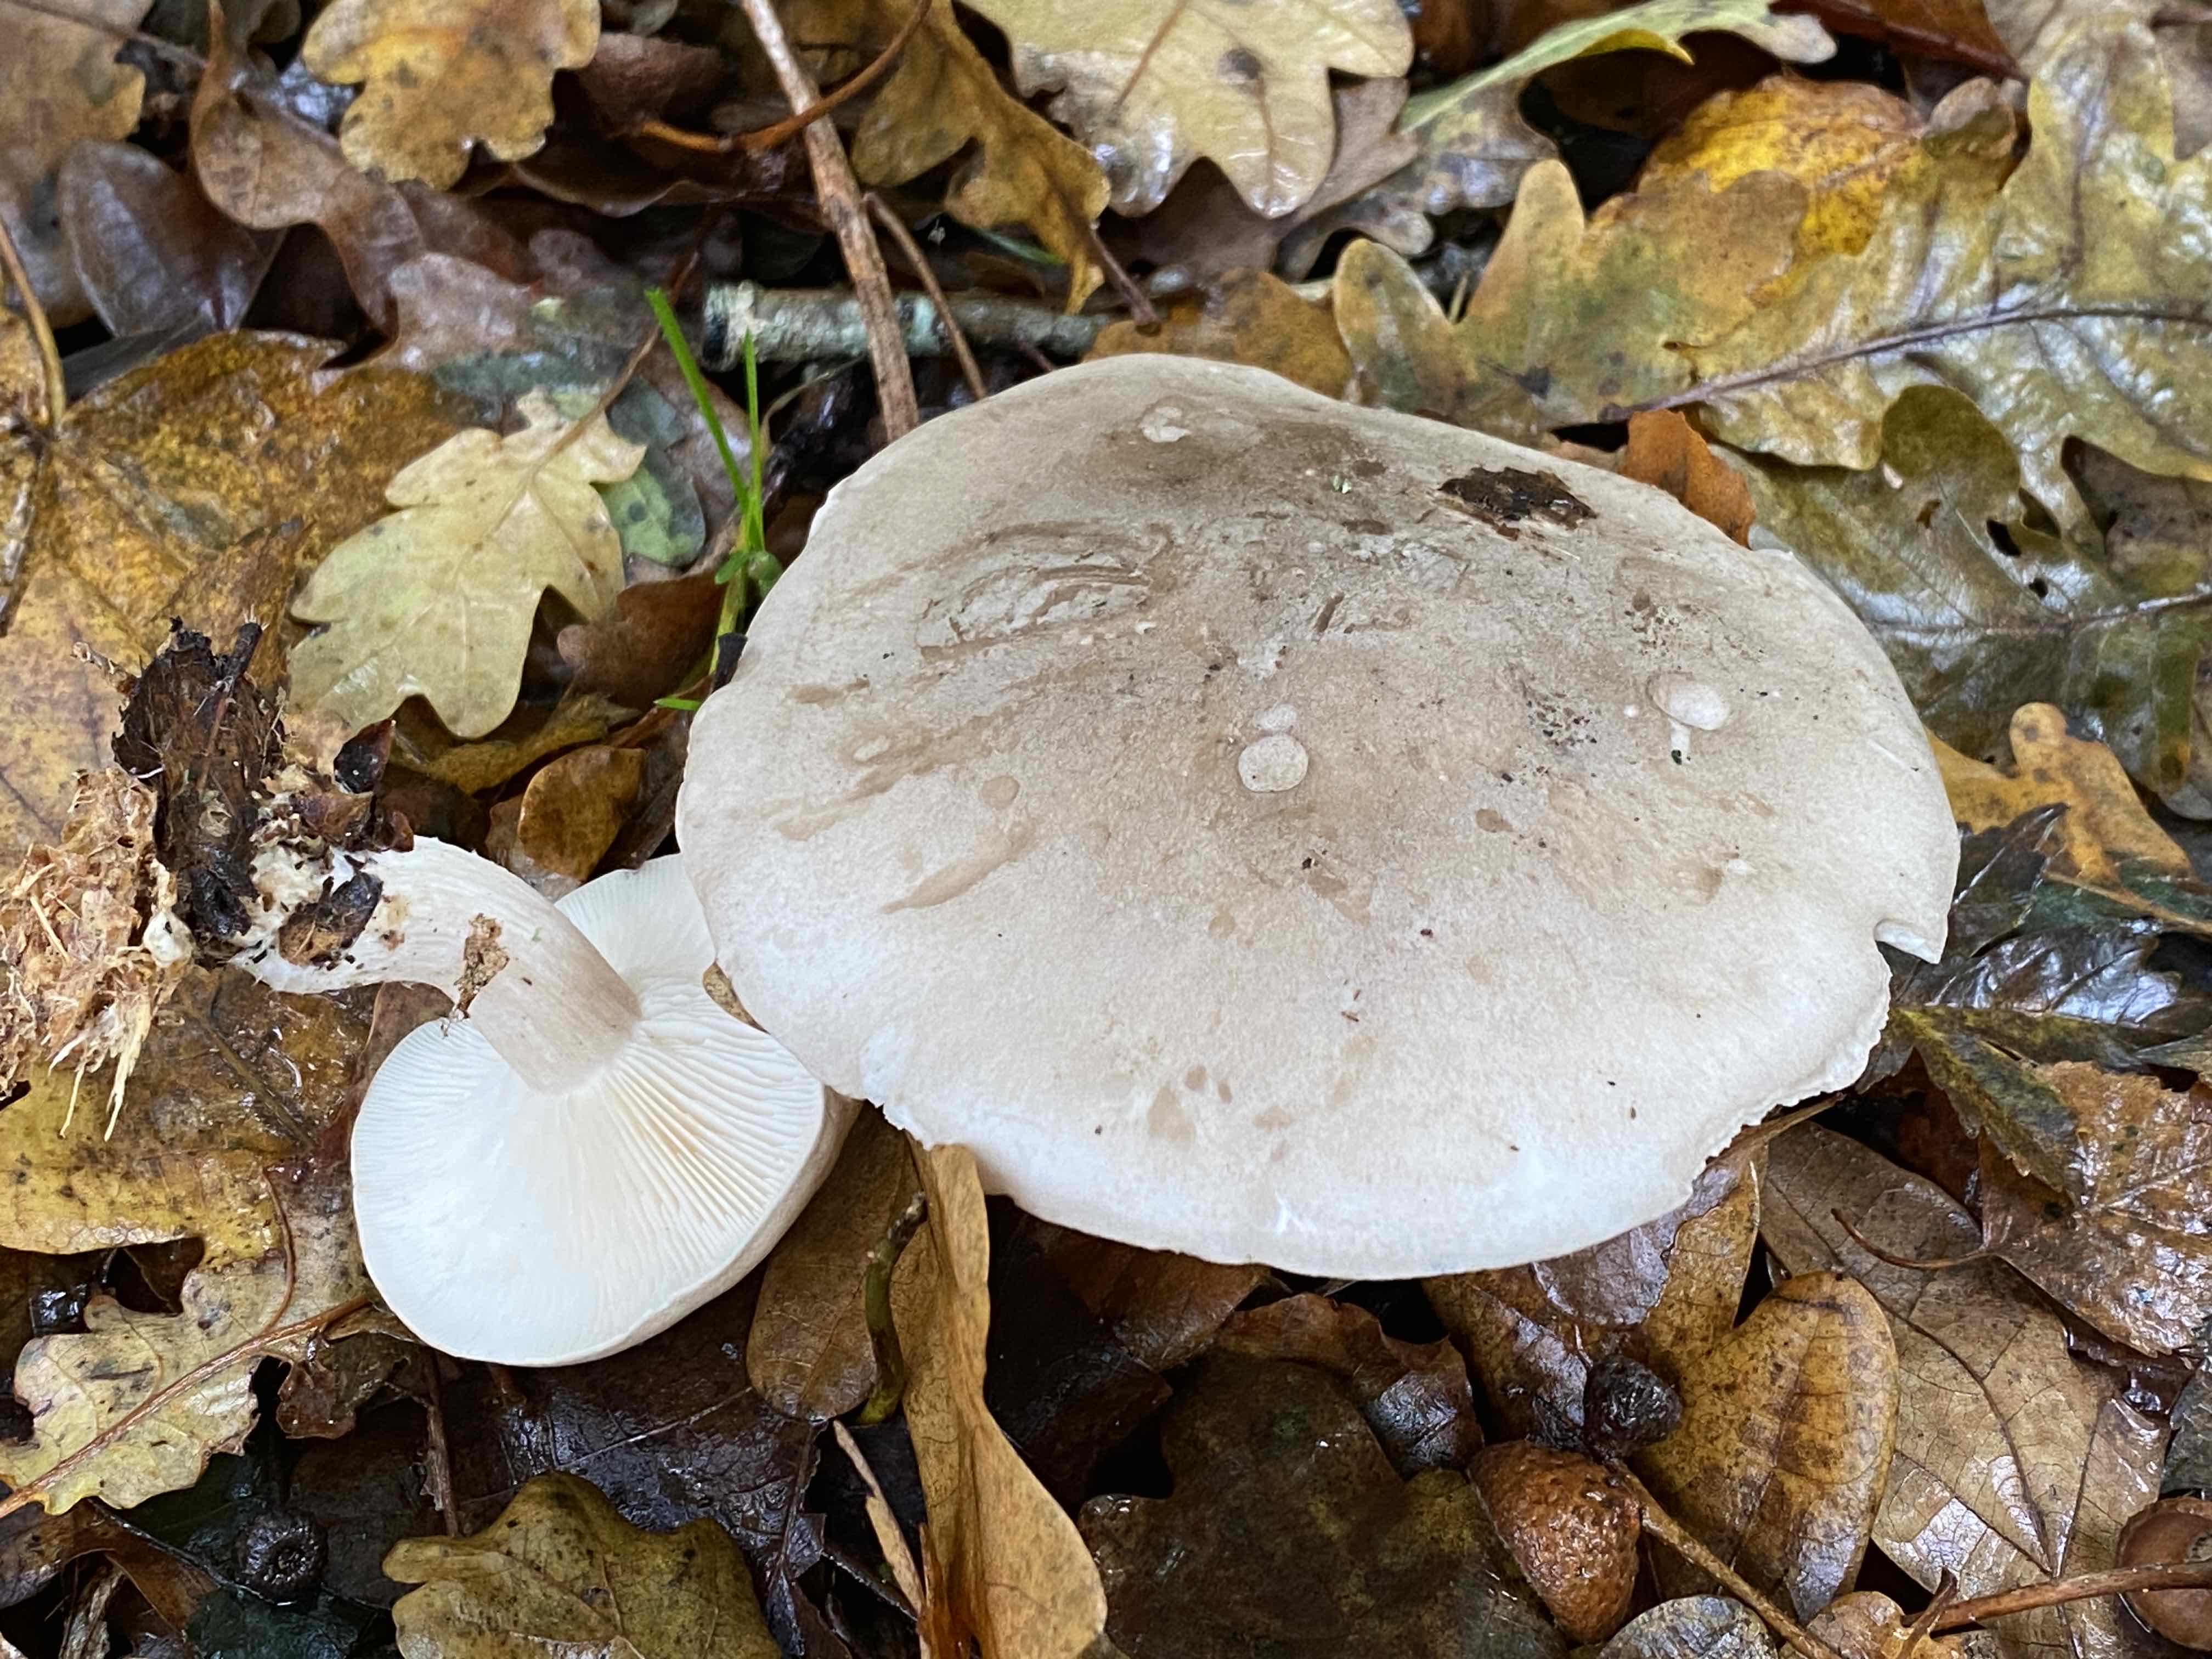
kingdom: Fungi
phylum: Basidiomycota
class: Agaricomycetes
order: Agaricales
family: Tricholomataceae
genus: Clitocybe
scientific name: Clitocybe nebularis
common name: tåge-tragthat
